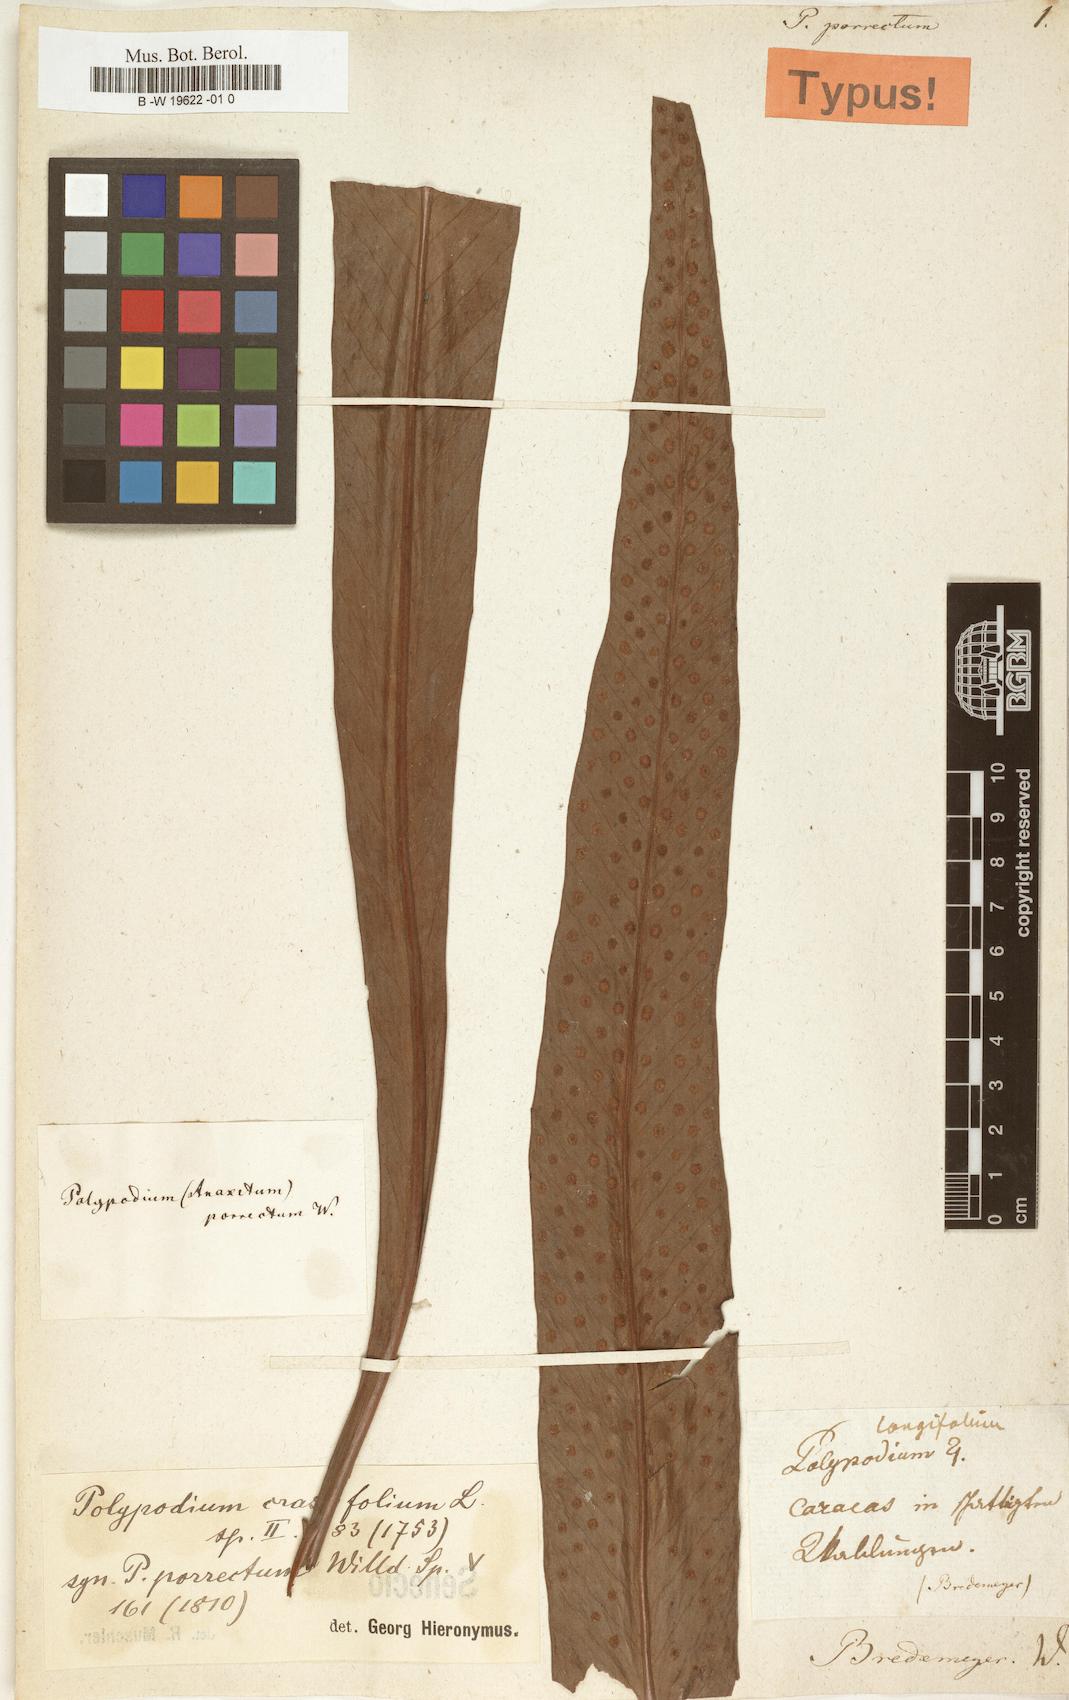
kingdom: Plantae
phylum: Tracheophyta
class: Polypodiopsida
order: Polypodiales
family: Polypodiaceae
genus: Niphidium
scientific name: Niphidium crassifolium
